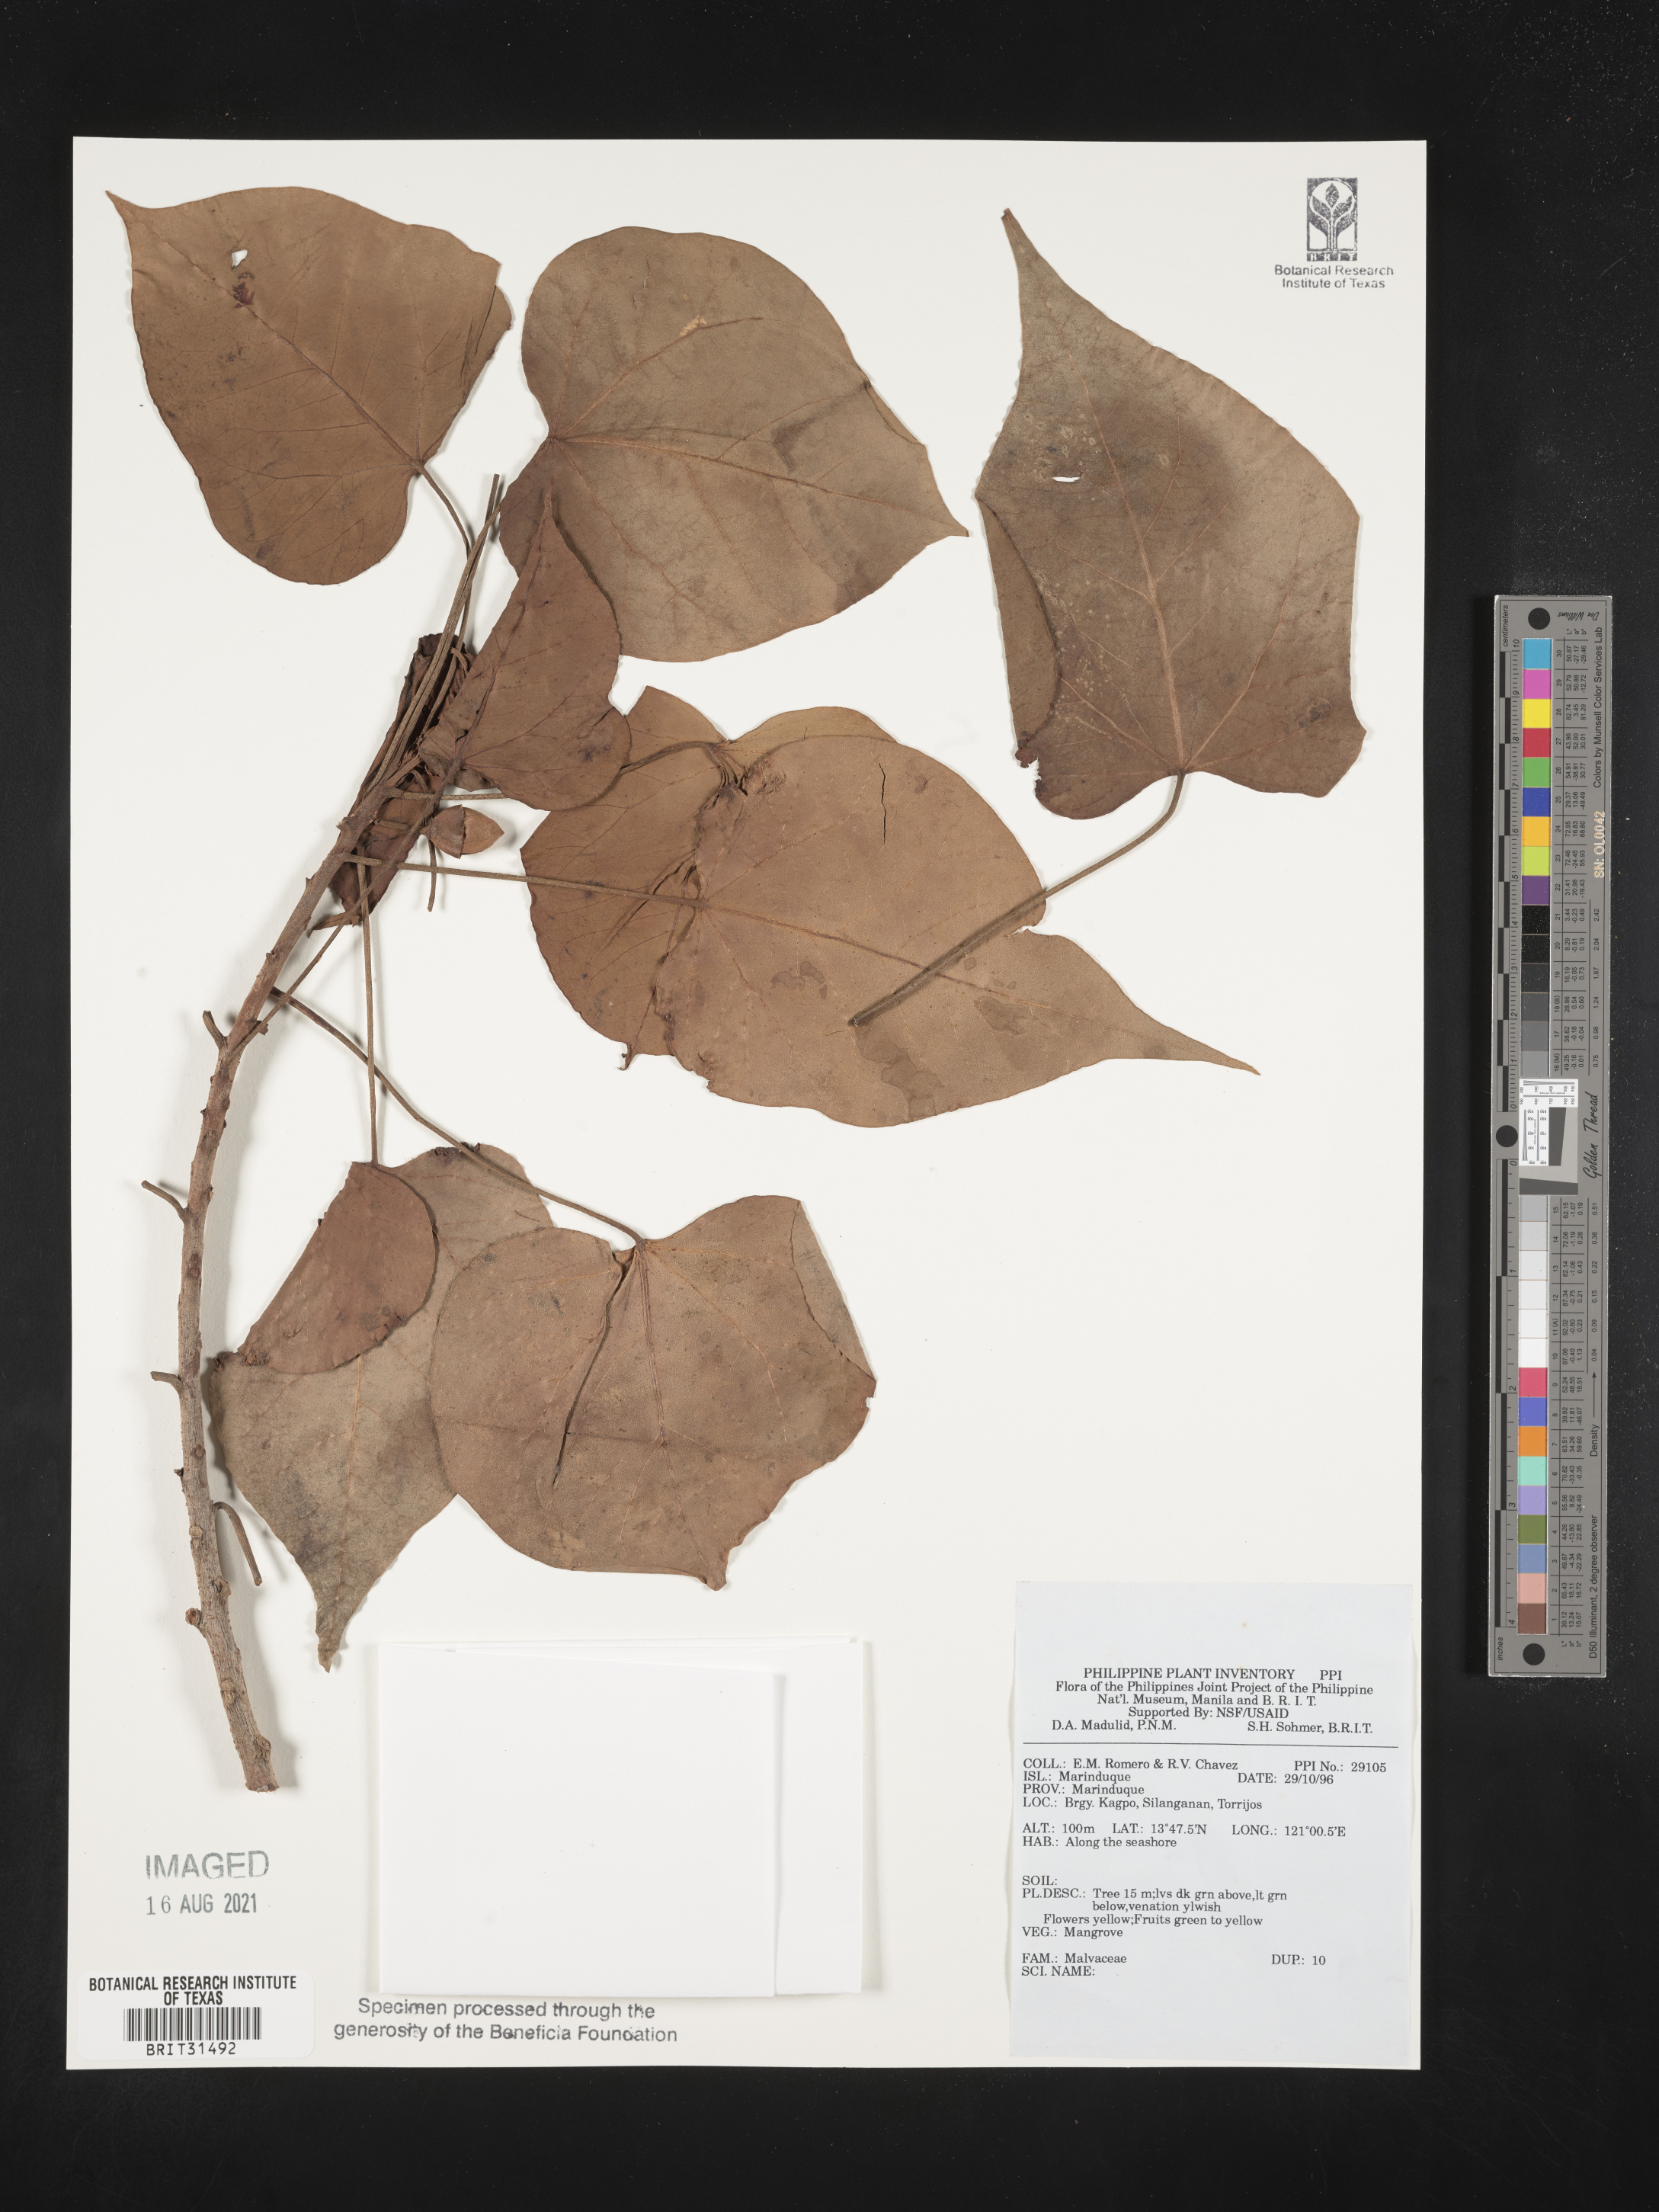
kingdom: Plantae
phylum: Tracheophyta
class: Magnoliopsida
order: Malvales
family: Malvaceae
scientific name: Malvaceae
